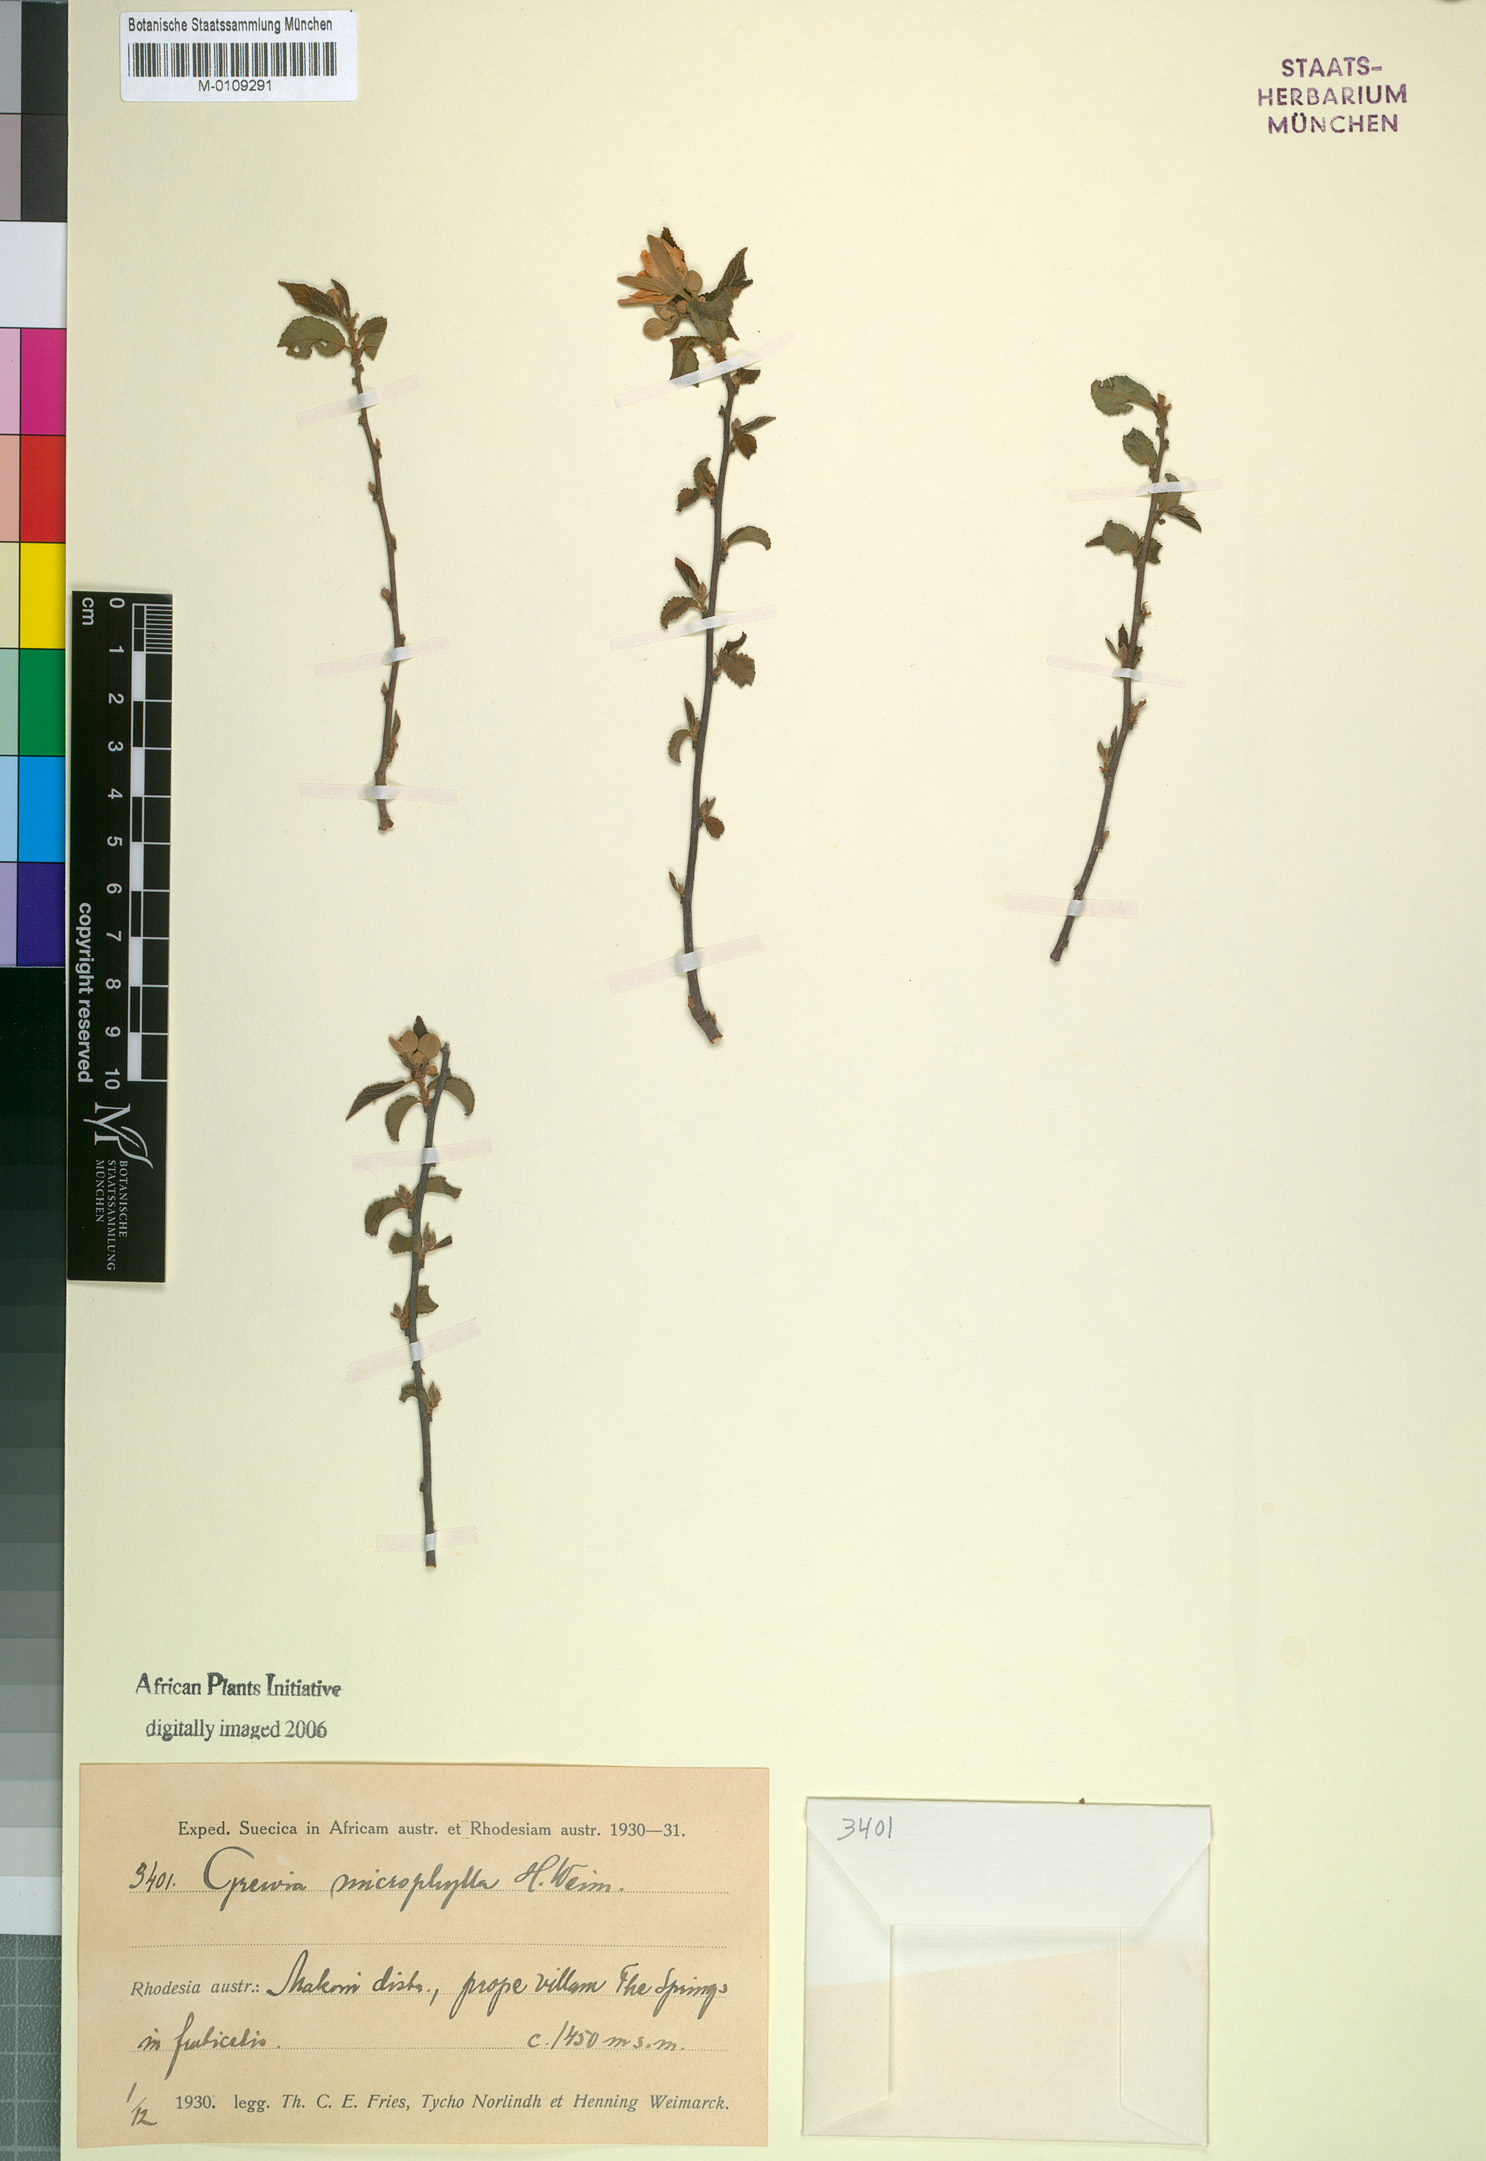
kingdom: Plantae
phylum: Tracheophyta
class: Magnoliopsida
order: Malvales
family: Malvaceae
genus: Grewia
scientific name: Grewia occidentalis
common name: Crossberry
